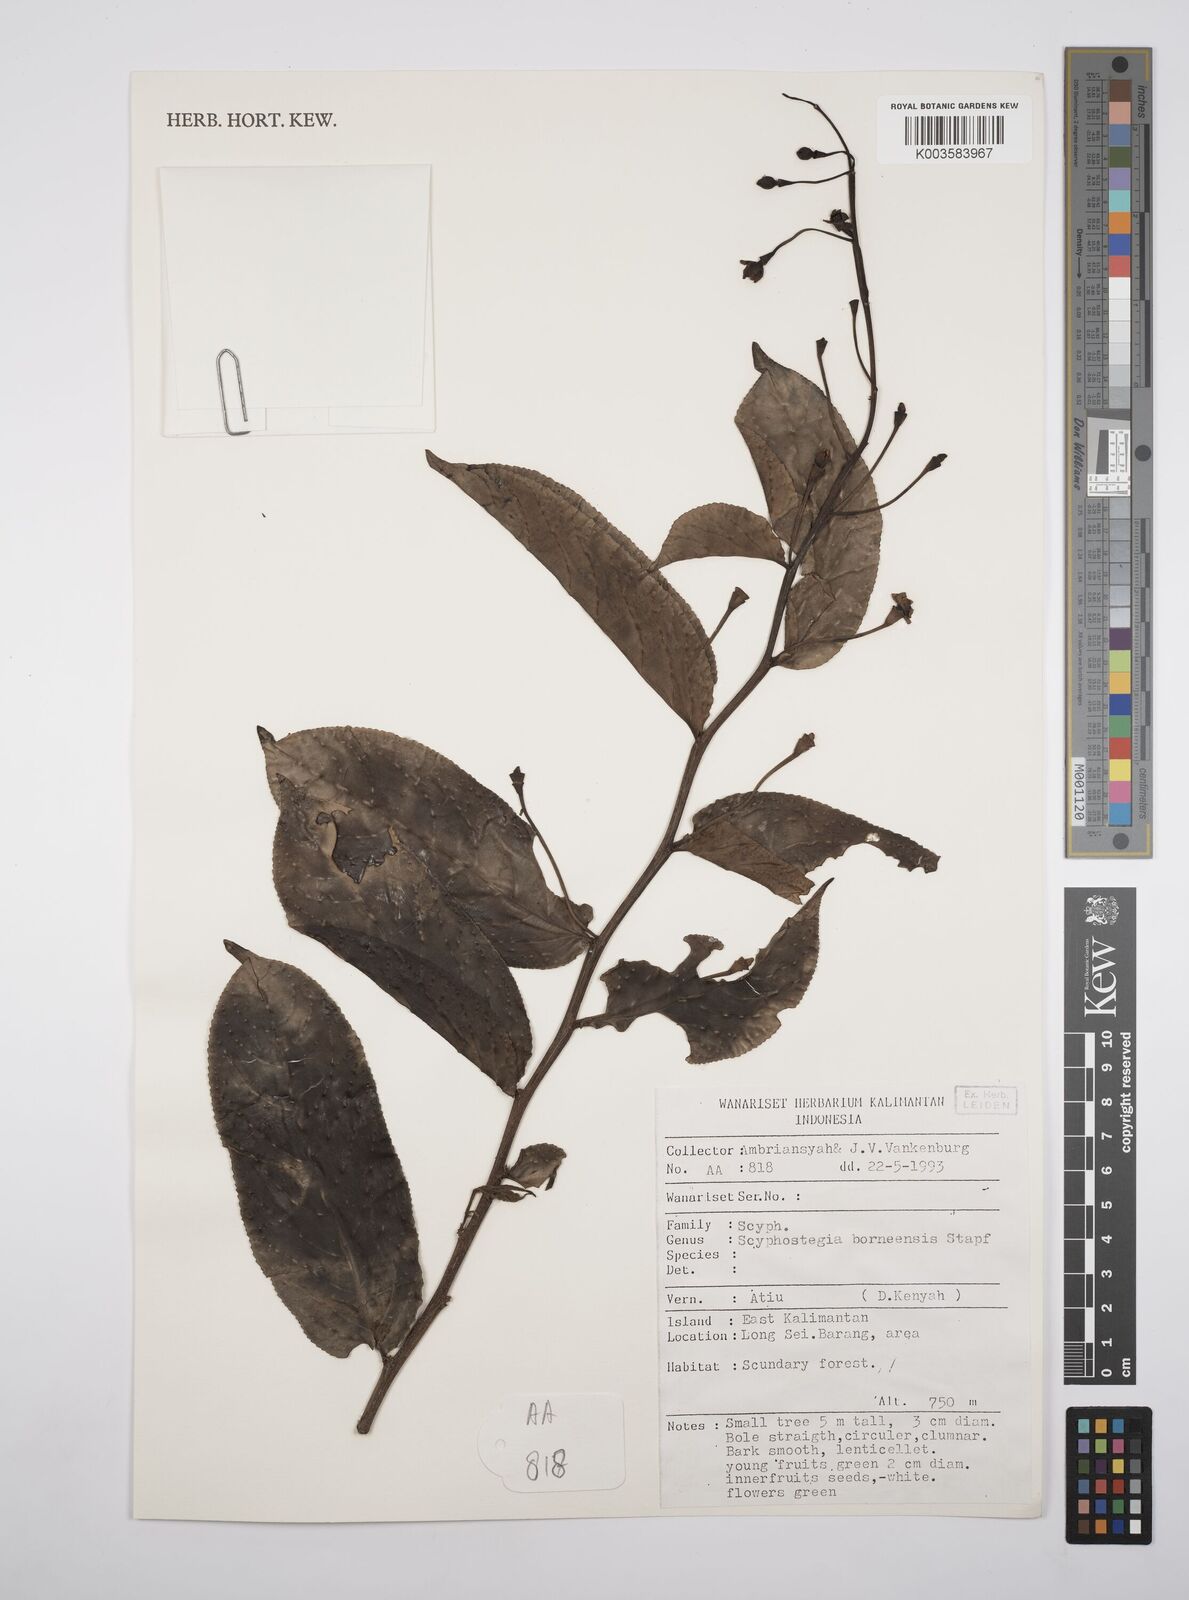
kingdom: Plantae
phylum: Tracheophyta
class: Magnoliopsida
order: Malpighiales
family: Salicaceae
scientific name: Salicaceae
